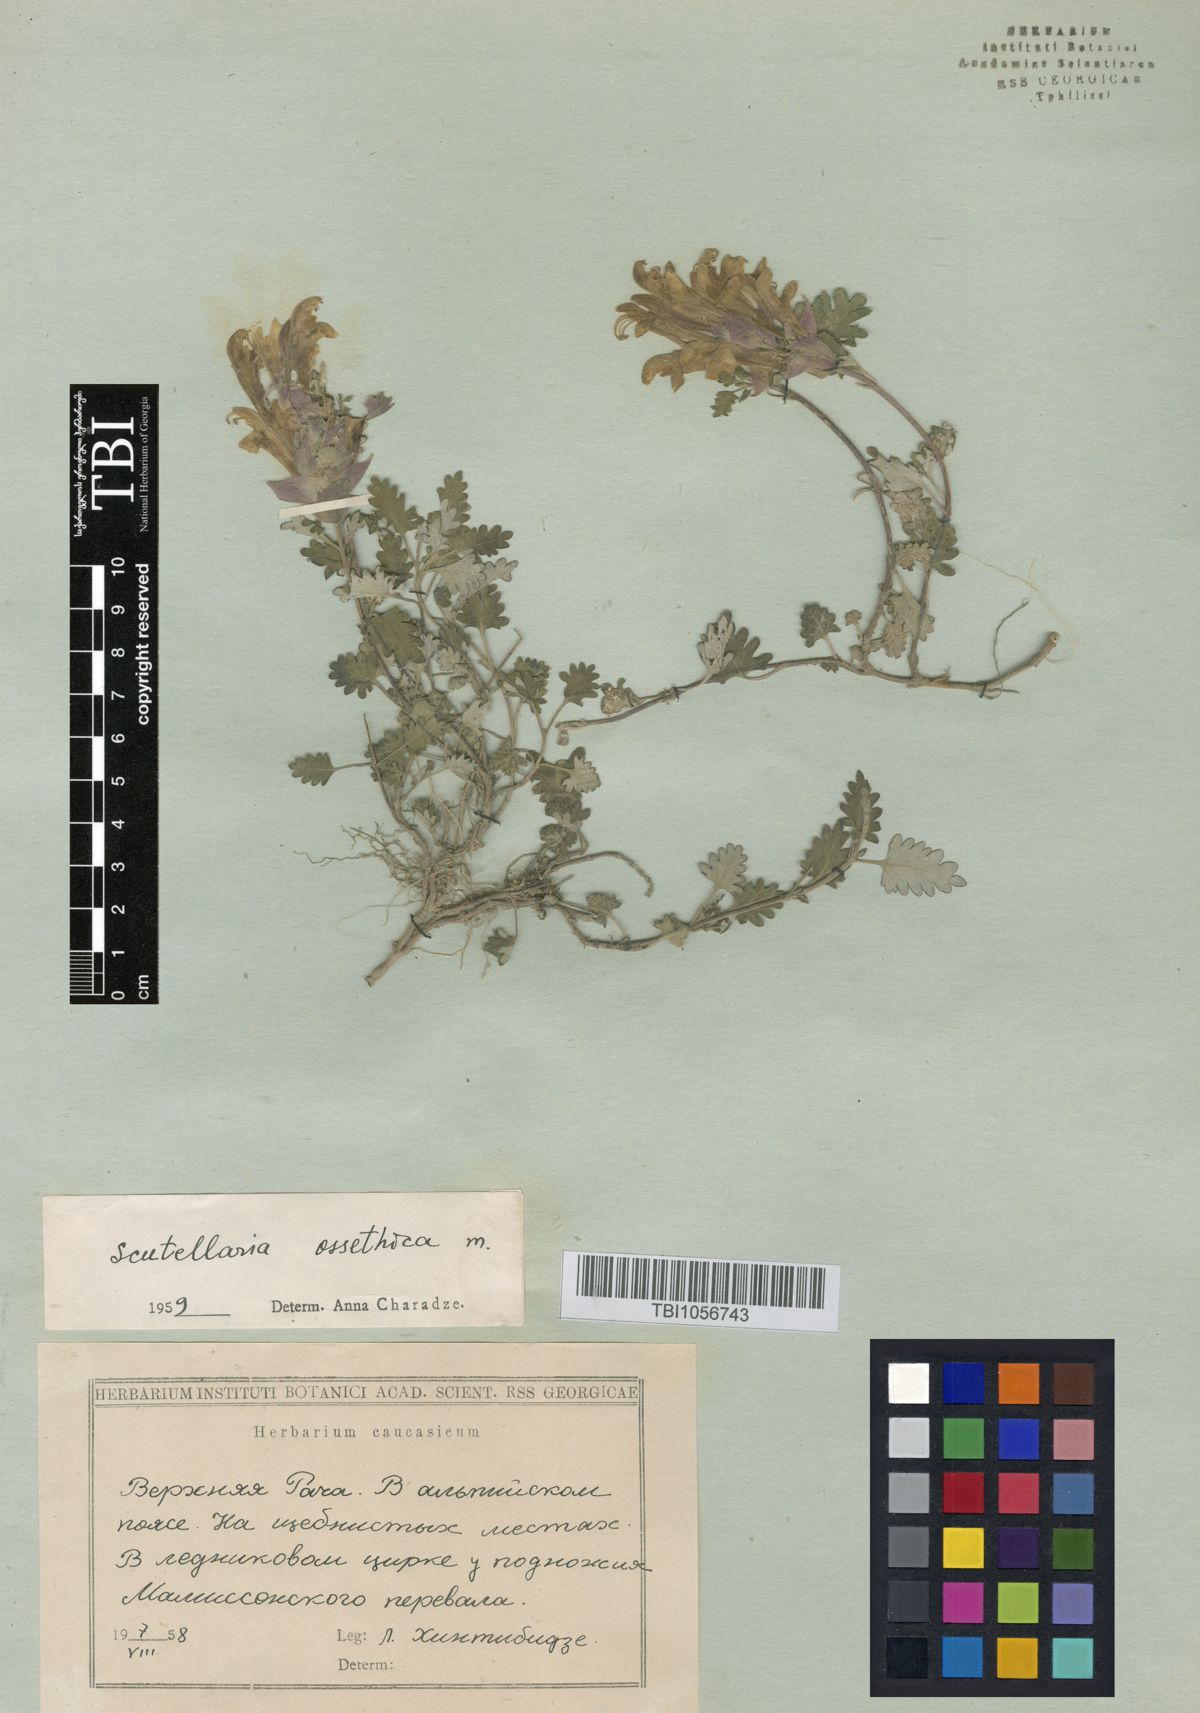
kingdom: Plantae
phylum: Tracheophyta
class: Magnoliopsida
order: Lamiales
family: Lamiaceae
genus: Scutellaria
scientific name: Scutellaria ossethica
